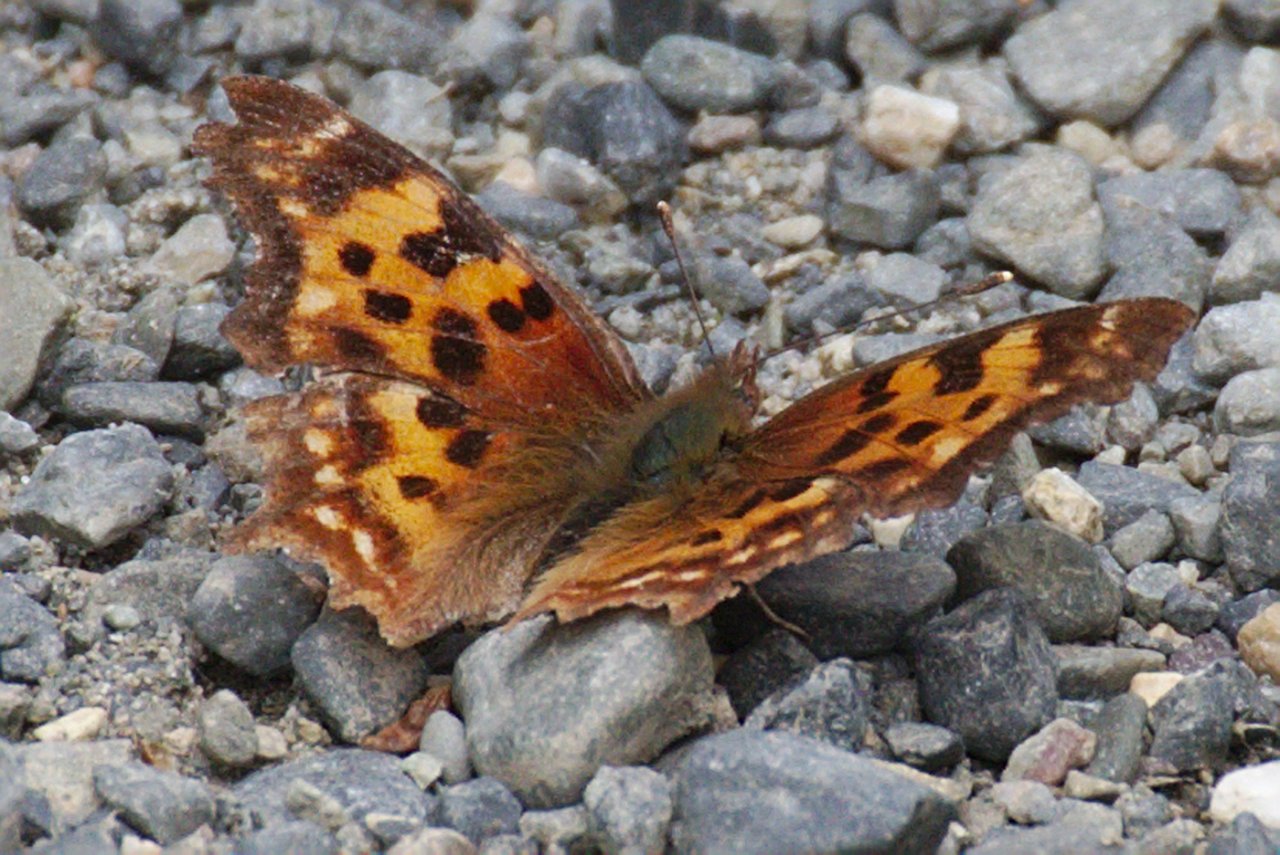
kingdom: Animalia
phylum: Arthropoda
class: Insecta
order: Lepidoptera
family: Nymphalidae
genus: Polygonia
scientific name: Polygonia satyrus
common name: Satyr Comma
